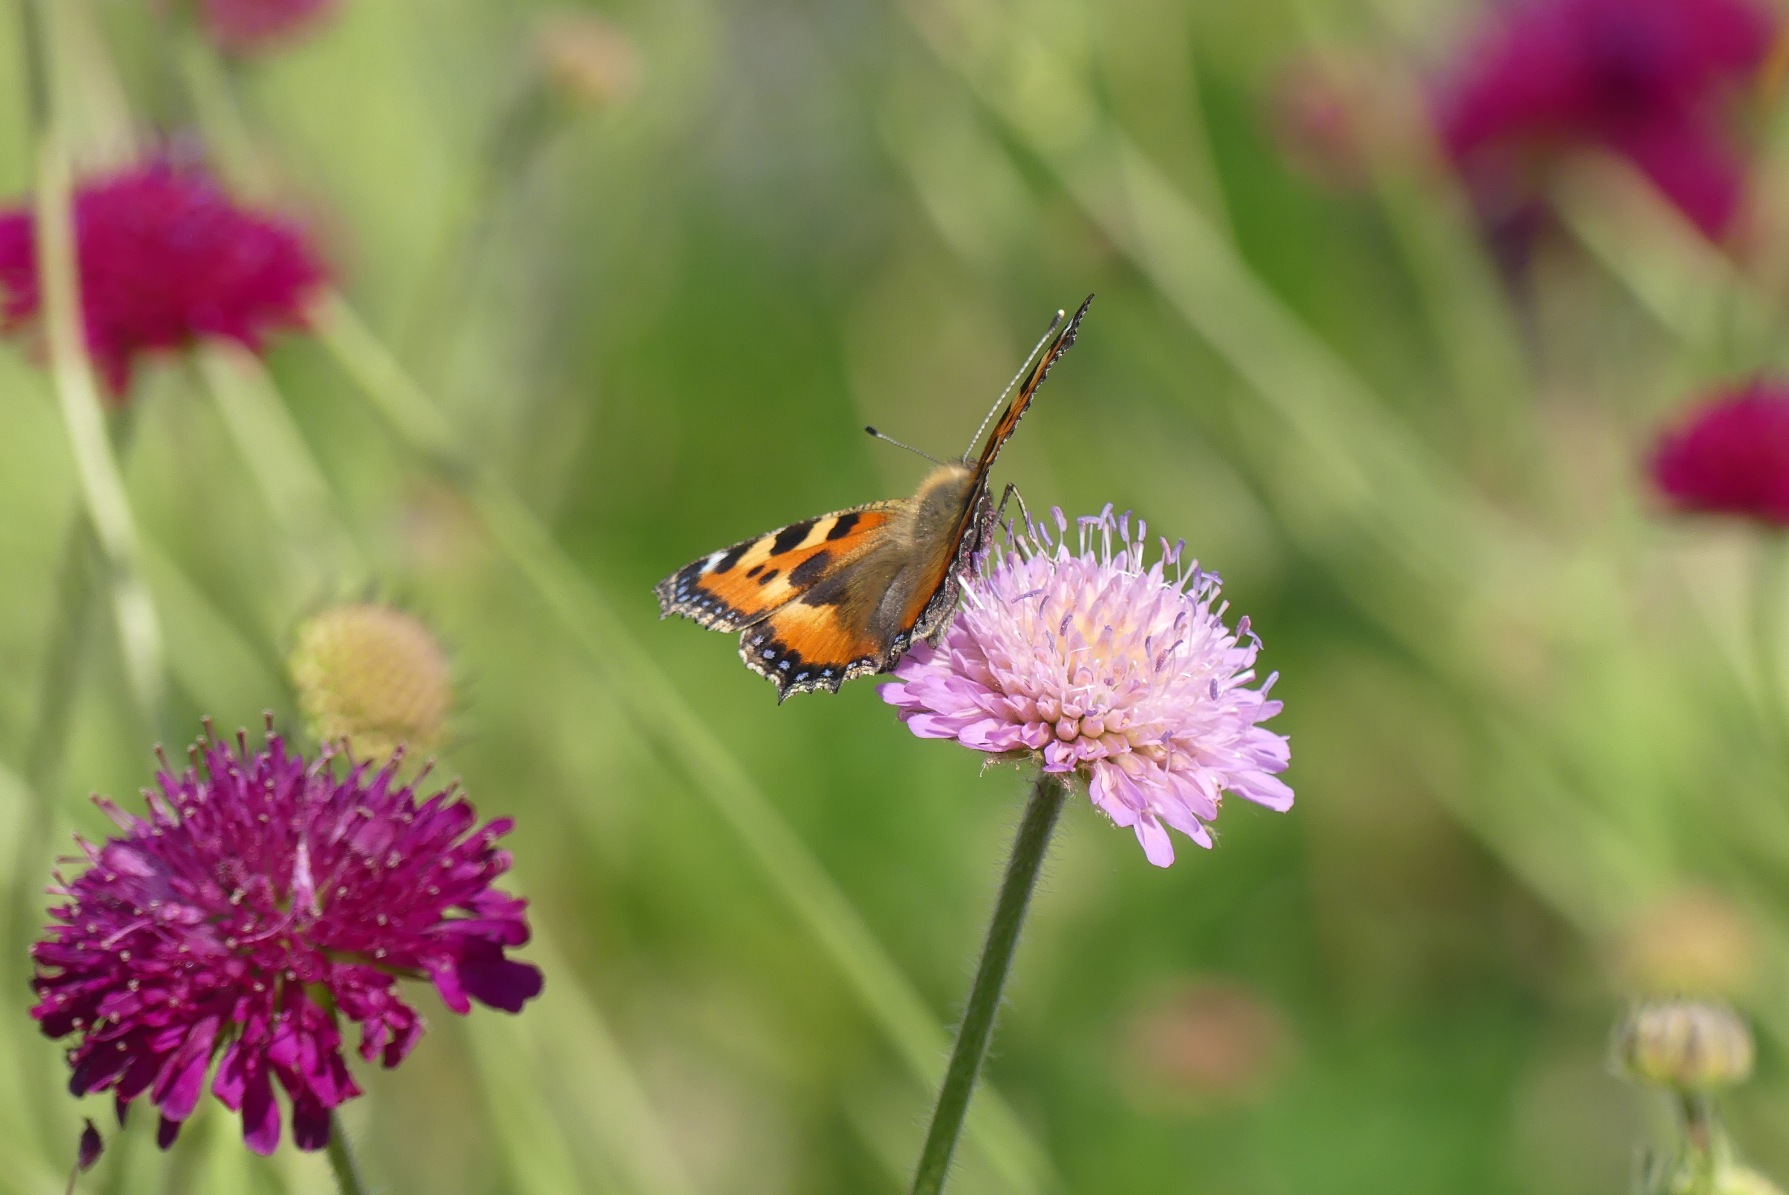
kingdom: Animalia
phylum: Arthropoda
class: Insecta
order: Lepidoptera
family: Nymphalidae
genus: Aglais
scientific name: Aglais urticae
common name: Nældens takvinge
